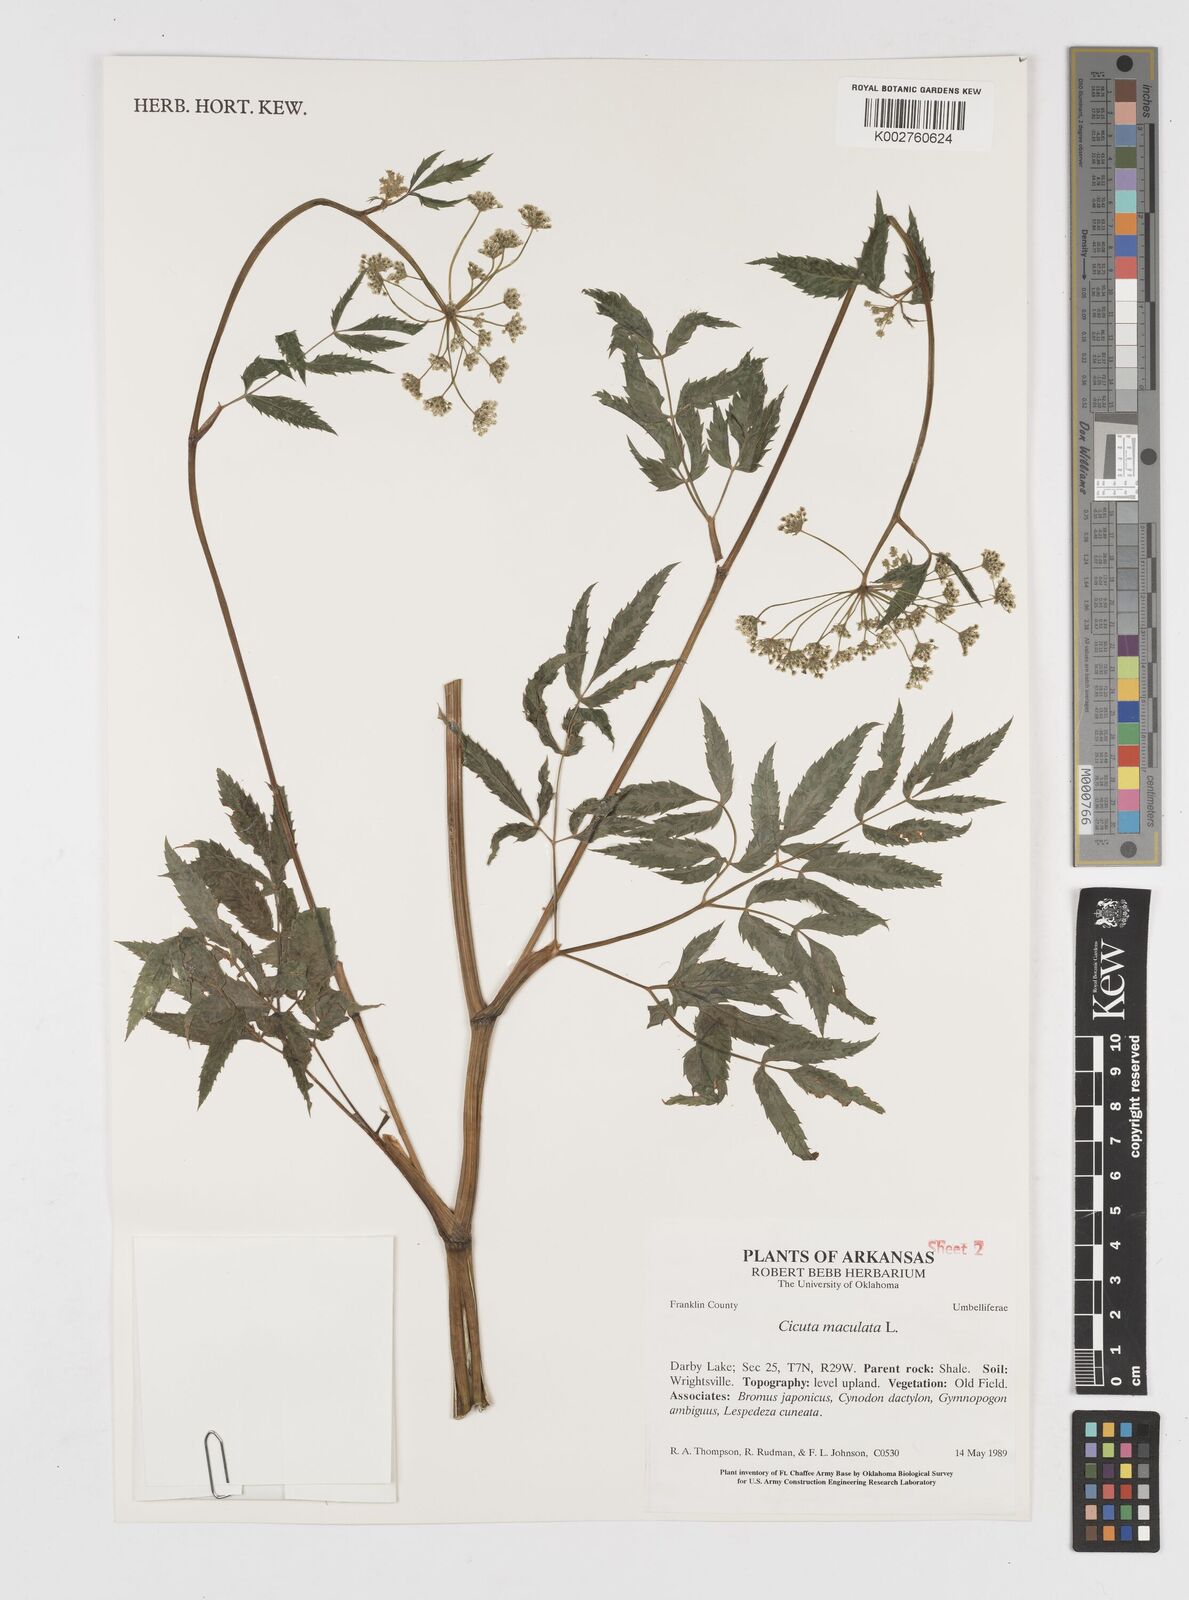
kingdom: Plantae
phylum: Tracheophyta
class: Magnoliopsida
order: Apiales
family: Apiaceae
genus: Cicuta
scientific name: Cicuta maculata
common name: Spotted cowbane
